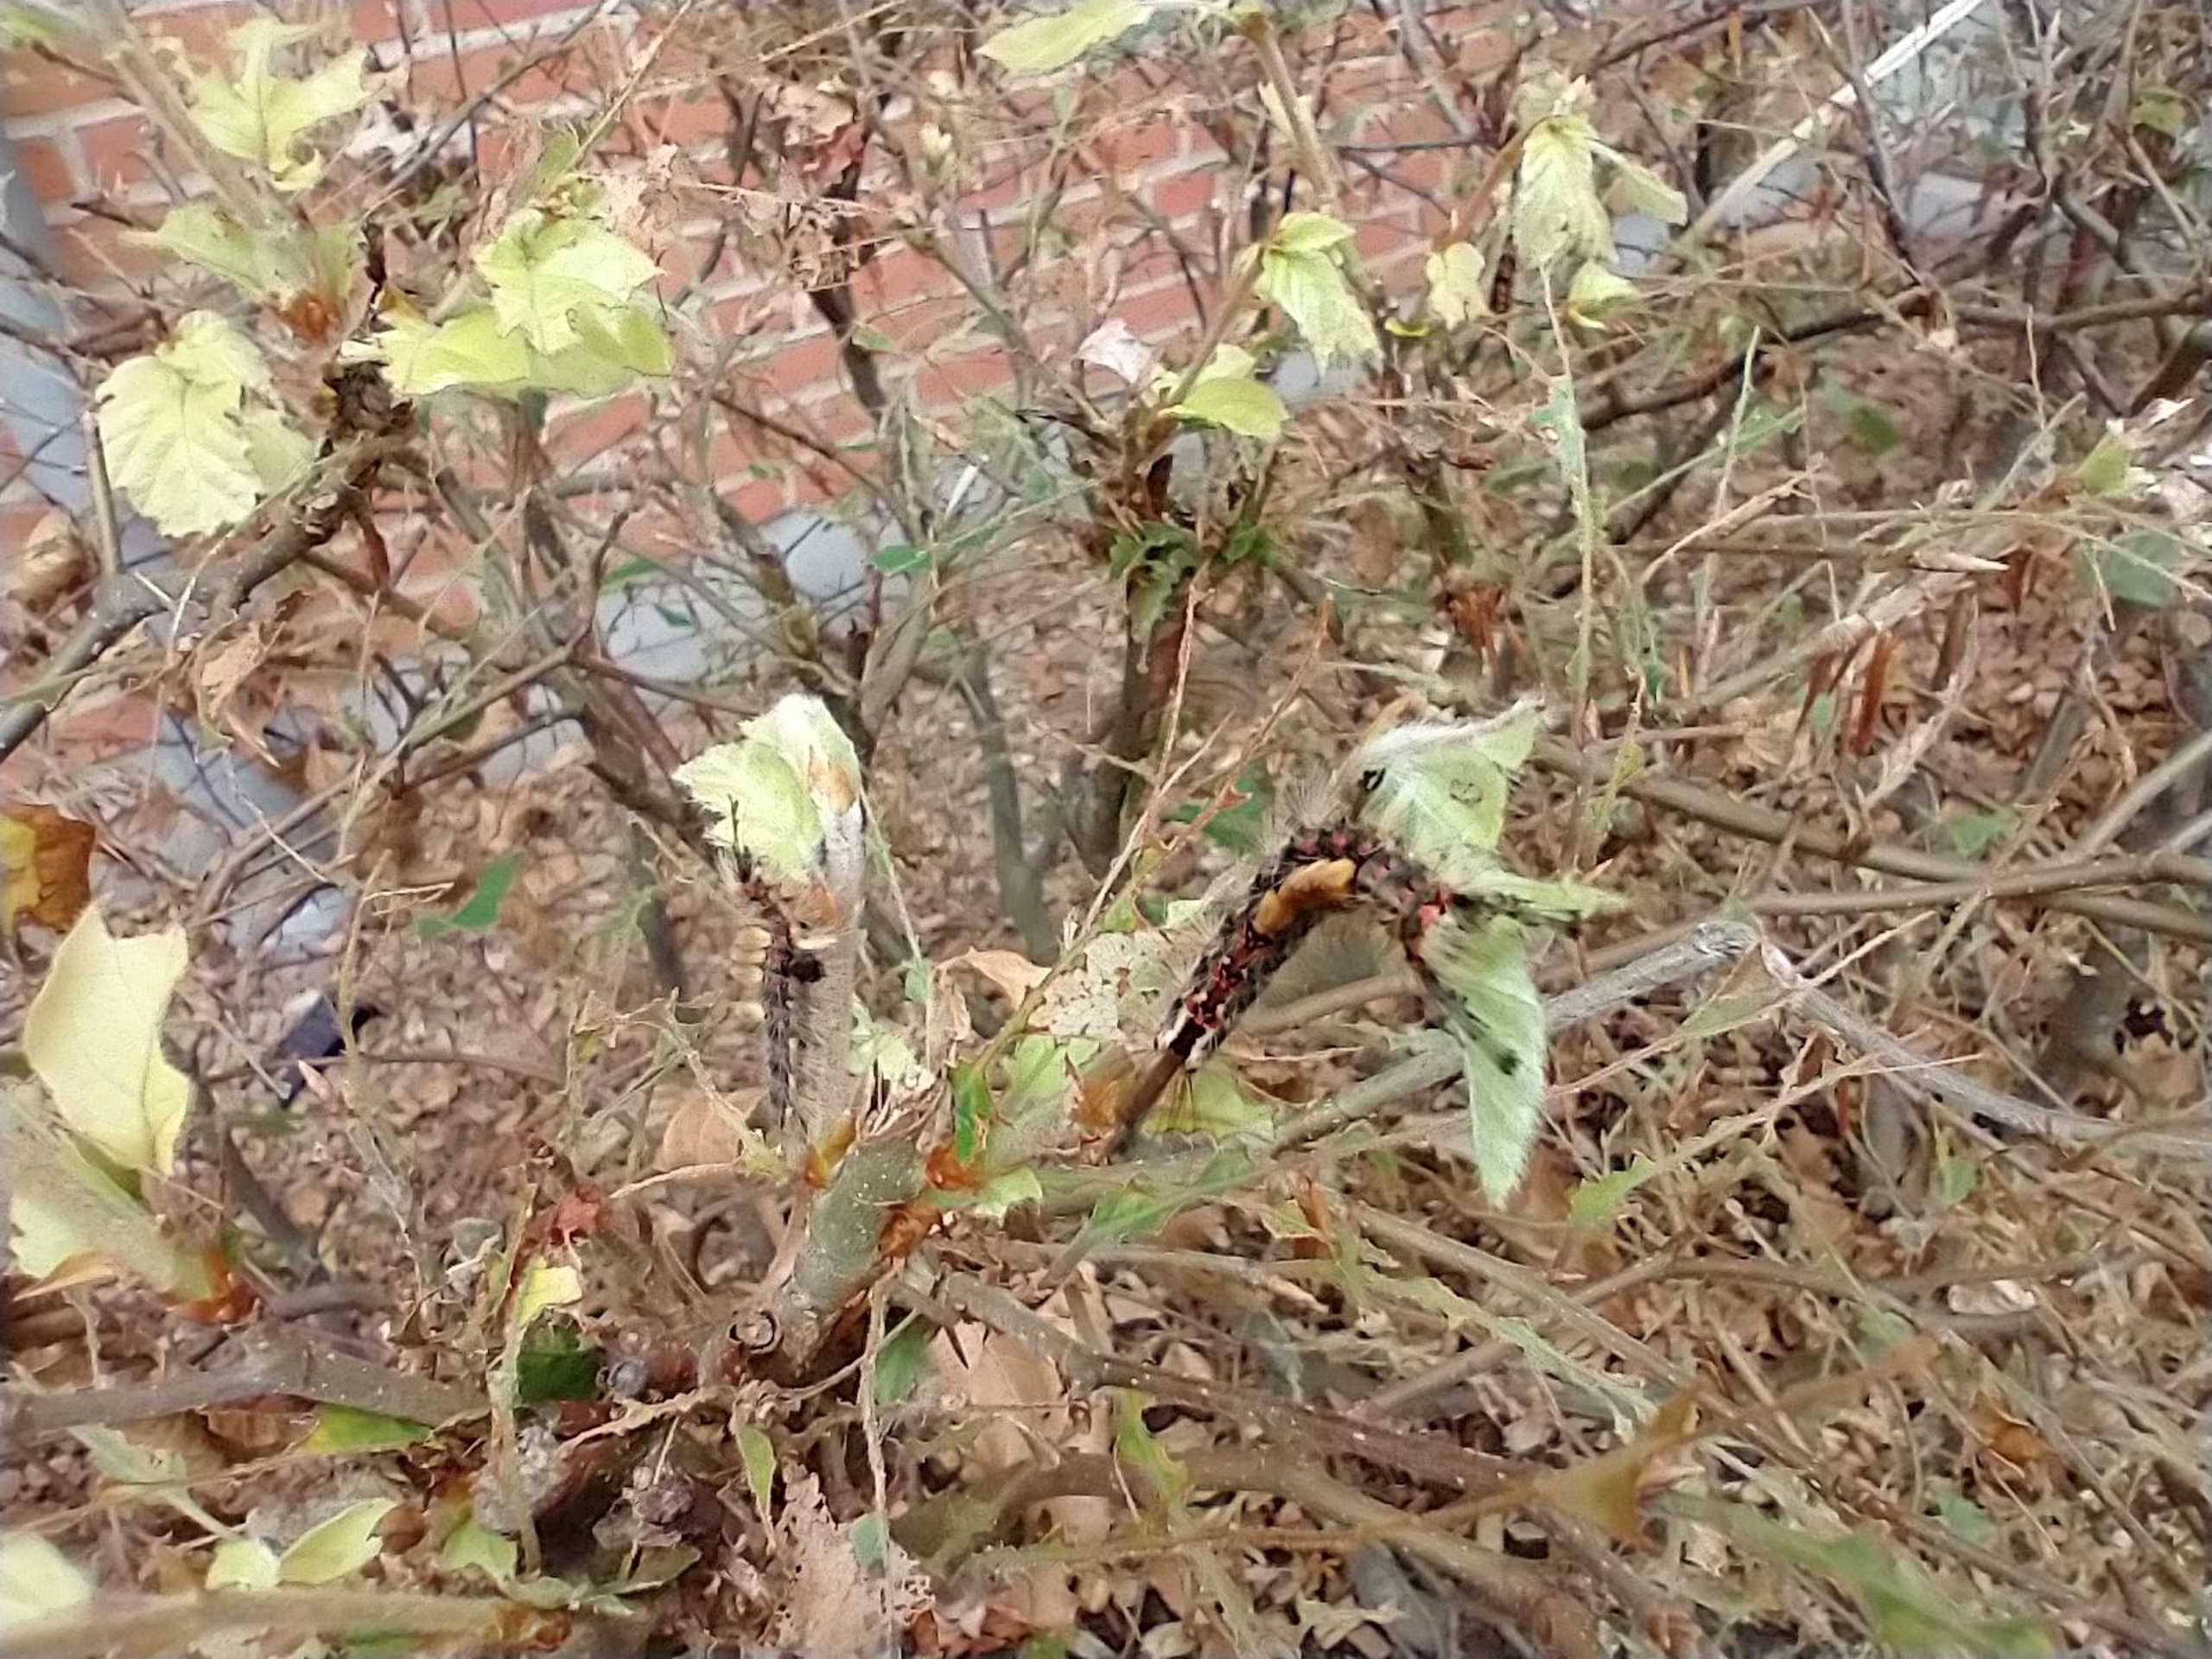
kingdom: Animalia
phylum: Arthropoda
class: Insecta
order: Lepidoptera
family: Erebidae
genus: Orgyia
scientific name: Orgyia antiqua
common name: Lille penselspinder
